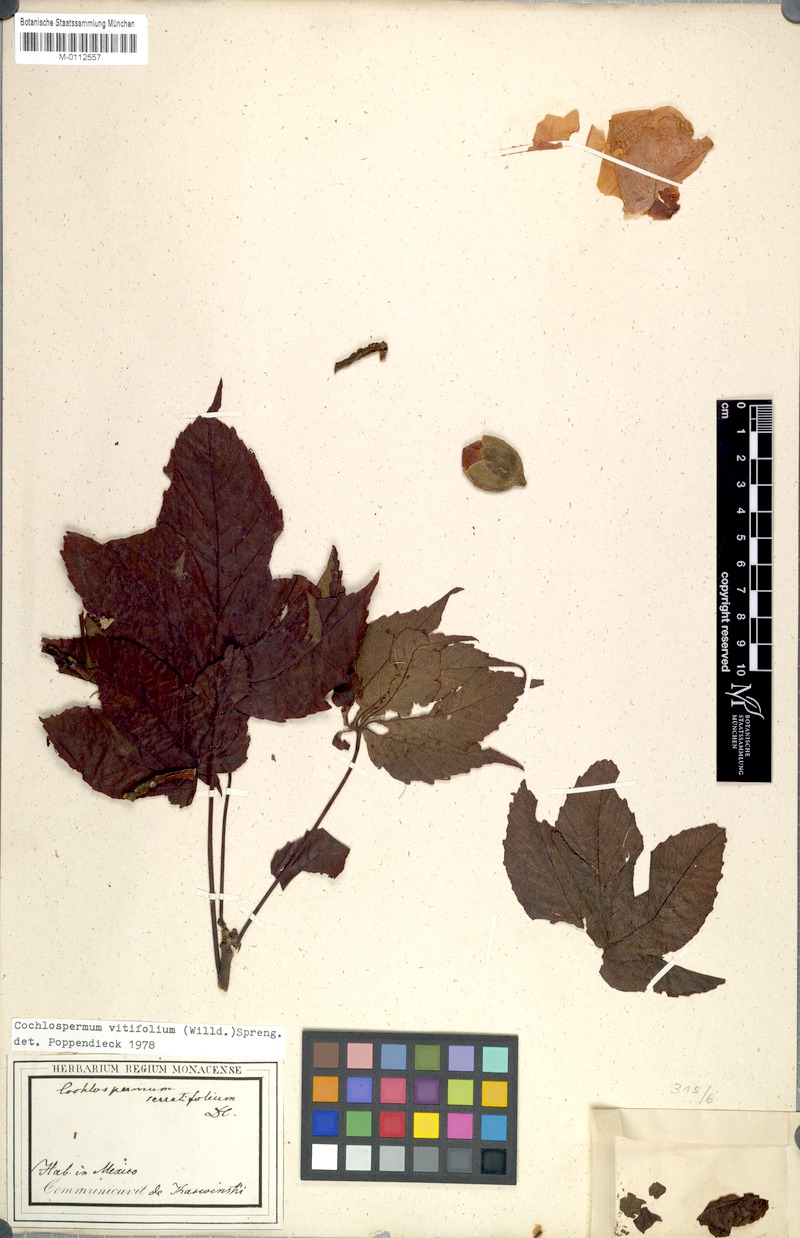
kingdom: Plantae
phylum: Tracheophyta
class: Magnoliopsida
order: Malvales
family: Cochlospermaceae
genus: Cochlospermum
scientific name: Cochlospermum vitifolium
